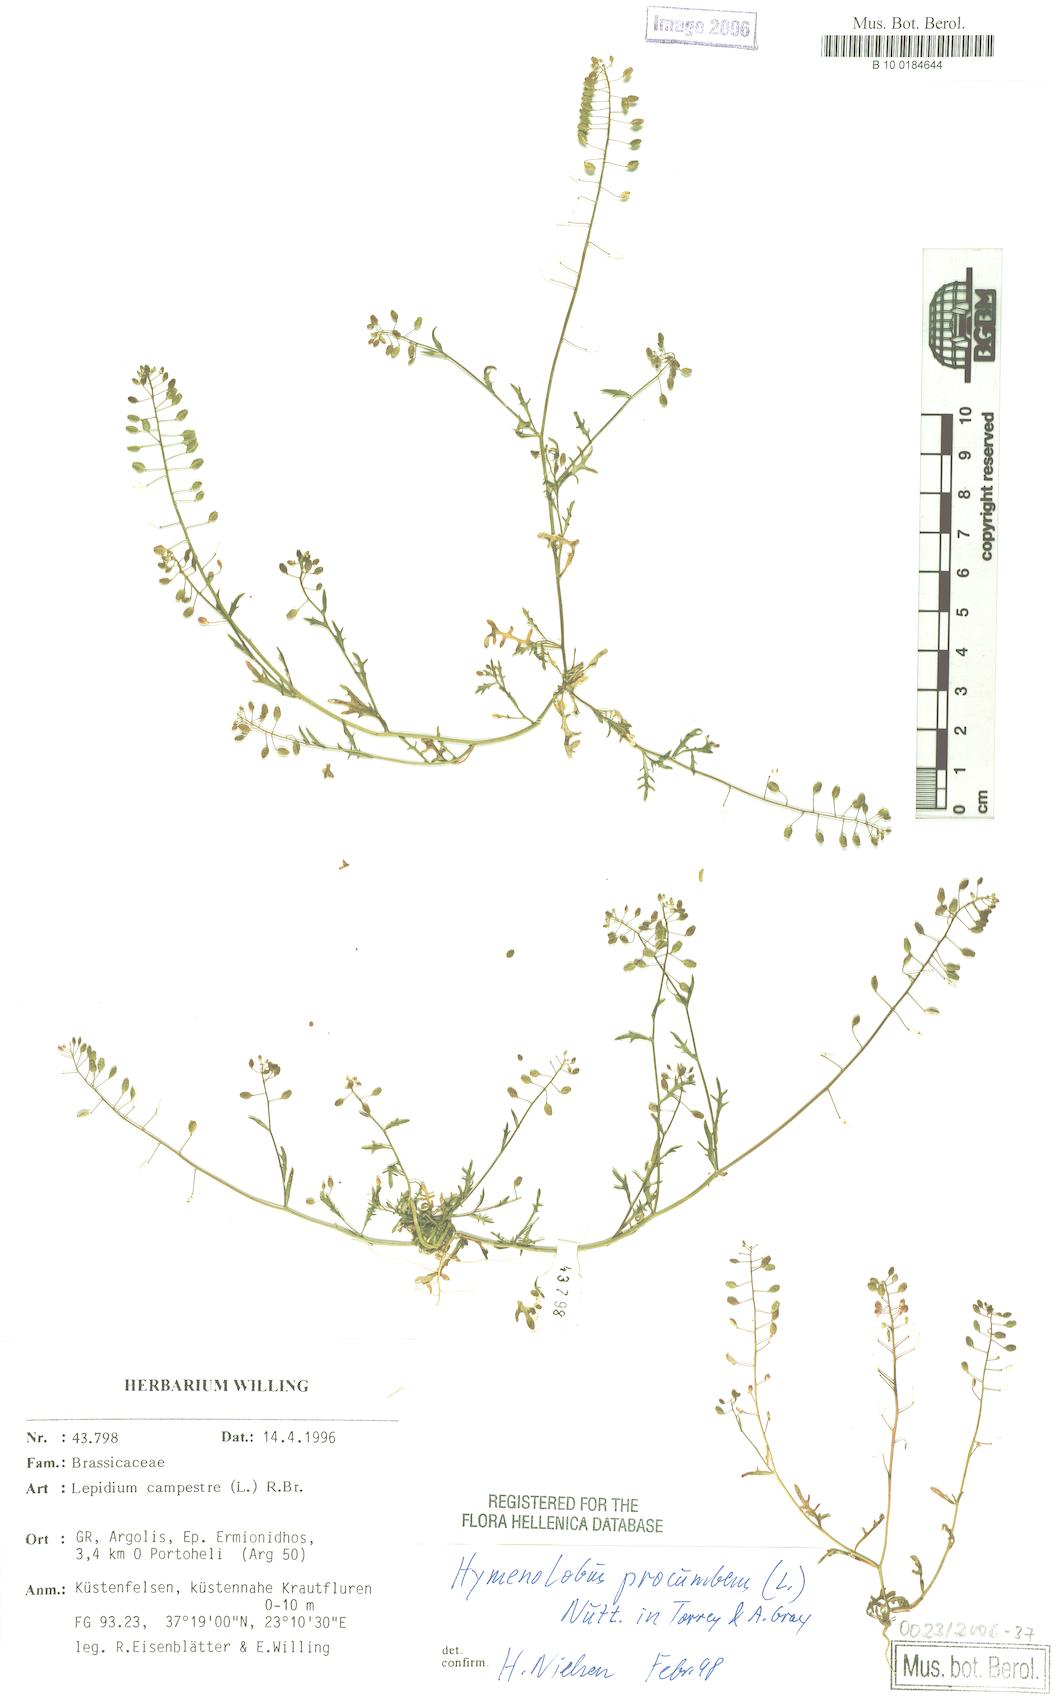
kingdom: Plantae
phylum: Tracheophyta
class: Magnoliopsida
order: Brassicales
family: Brassicaceae
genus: Hornungia
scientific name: Hornungia procumbens
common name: Oval purse
